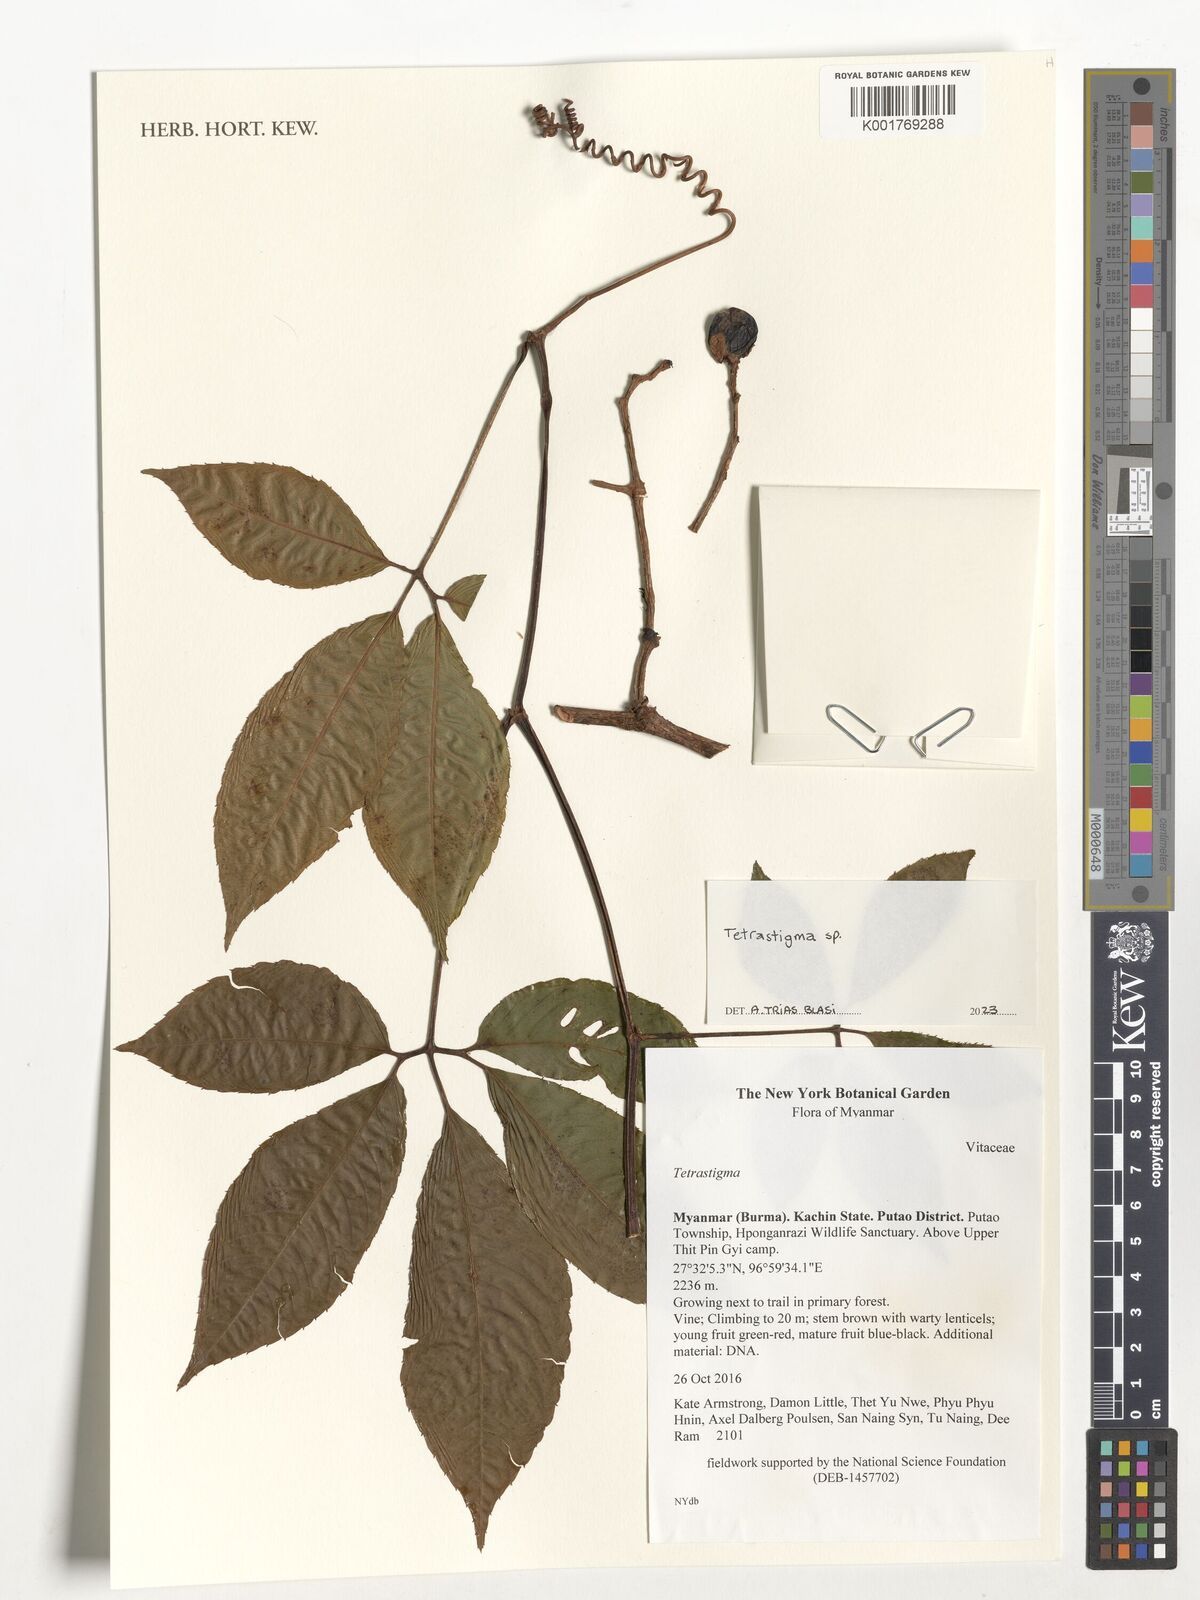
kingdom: Plantae
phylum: Tracheophyta
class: Magnoliopsida
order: Vitales
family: Vitaceae
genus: Tetrastigma
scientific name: Tetrastigma
